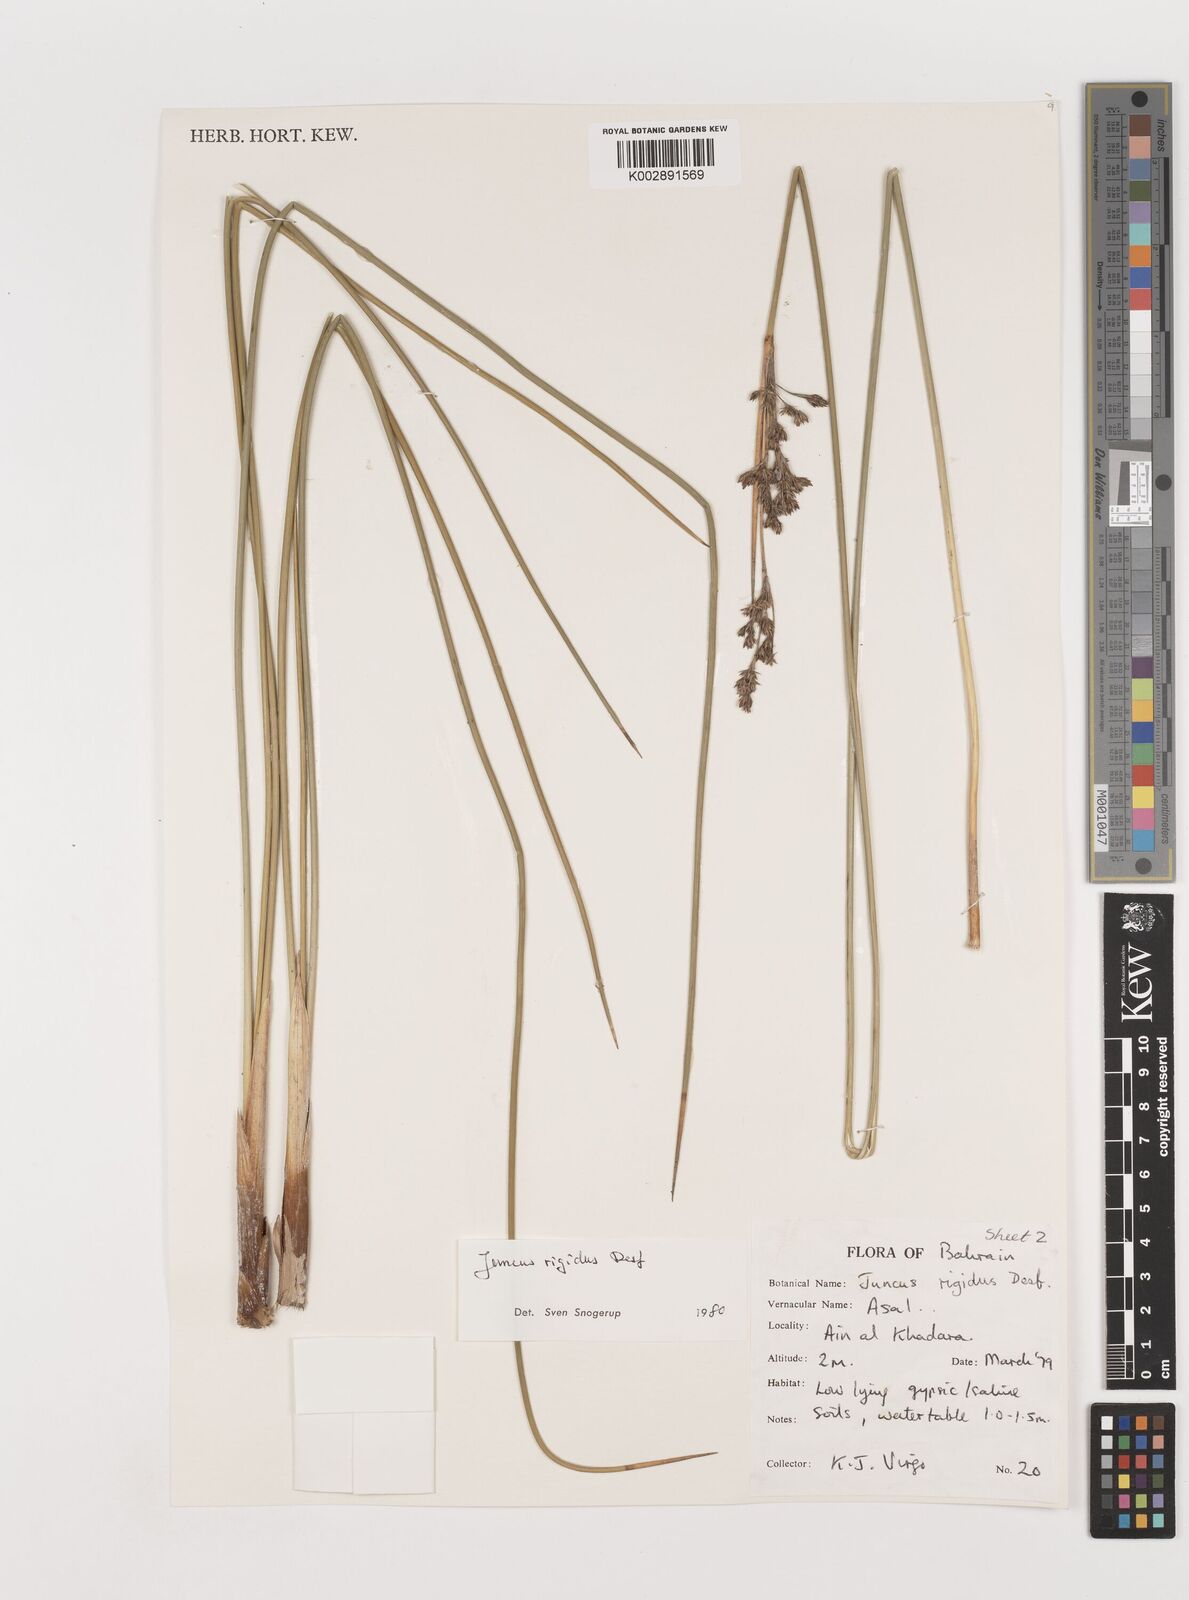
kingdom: Plantae
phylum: Tracheophyta
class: Liliopsida
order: Poales
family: Juncaceae
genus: Juncus
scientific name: Juncus rigidus
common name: Hard sea rush
